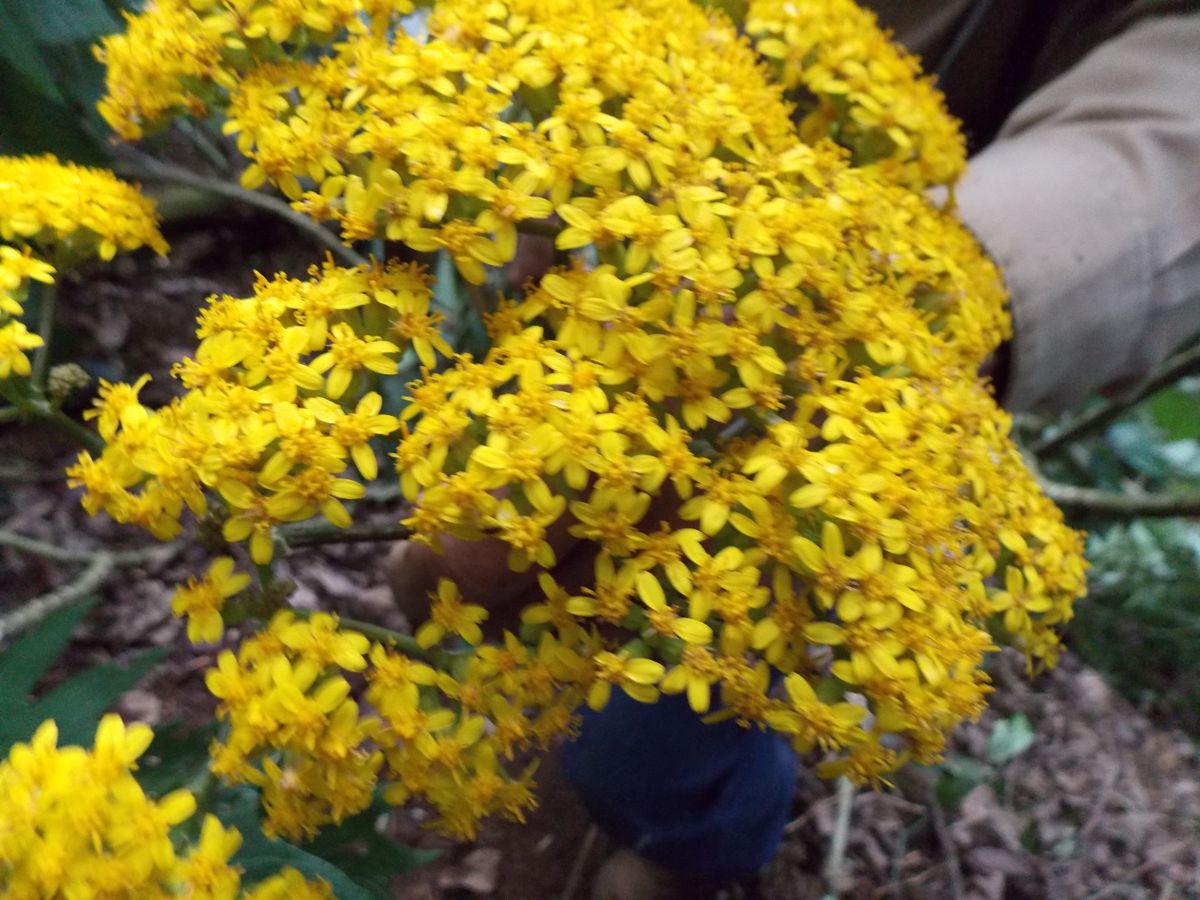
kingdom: Plantae
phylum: Tracheophyta
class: Magnoliopsida
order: Asterales
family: Asteraceae
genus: Telanthophora
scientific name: Telanthophora grandifolia
